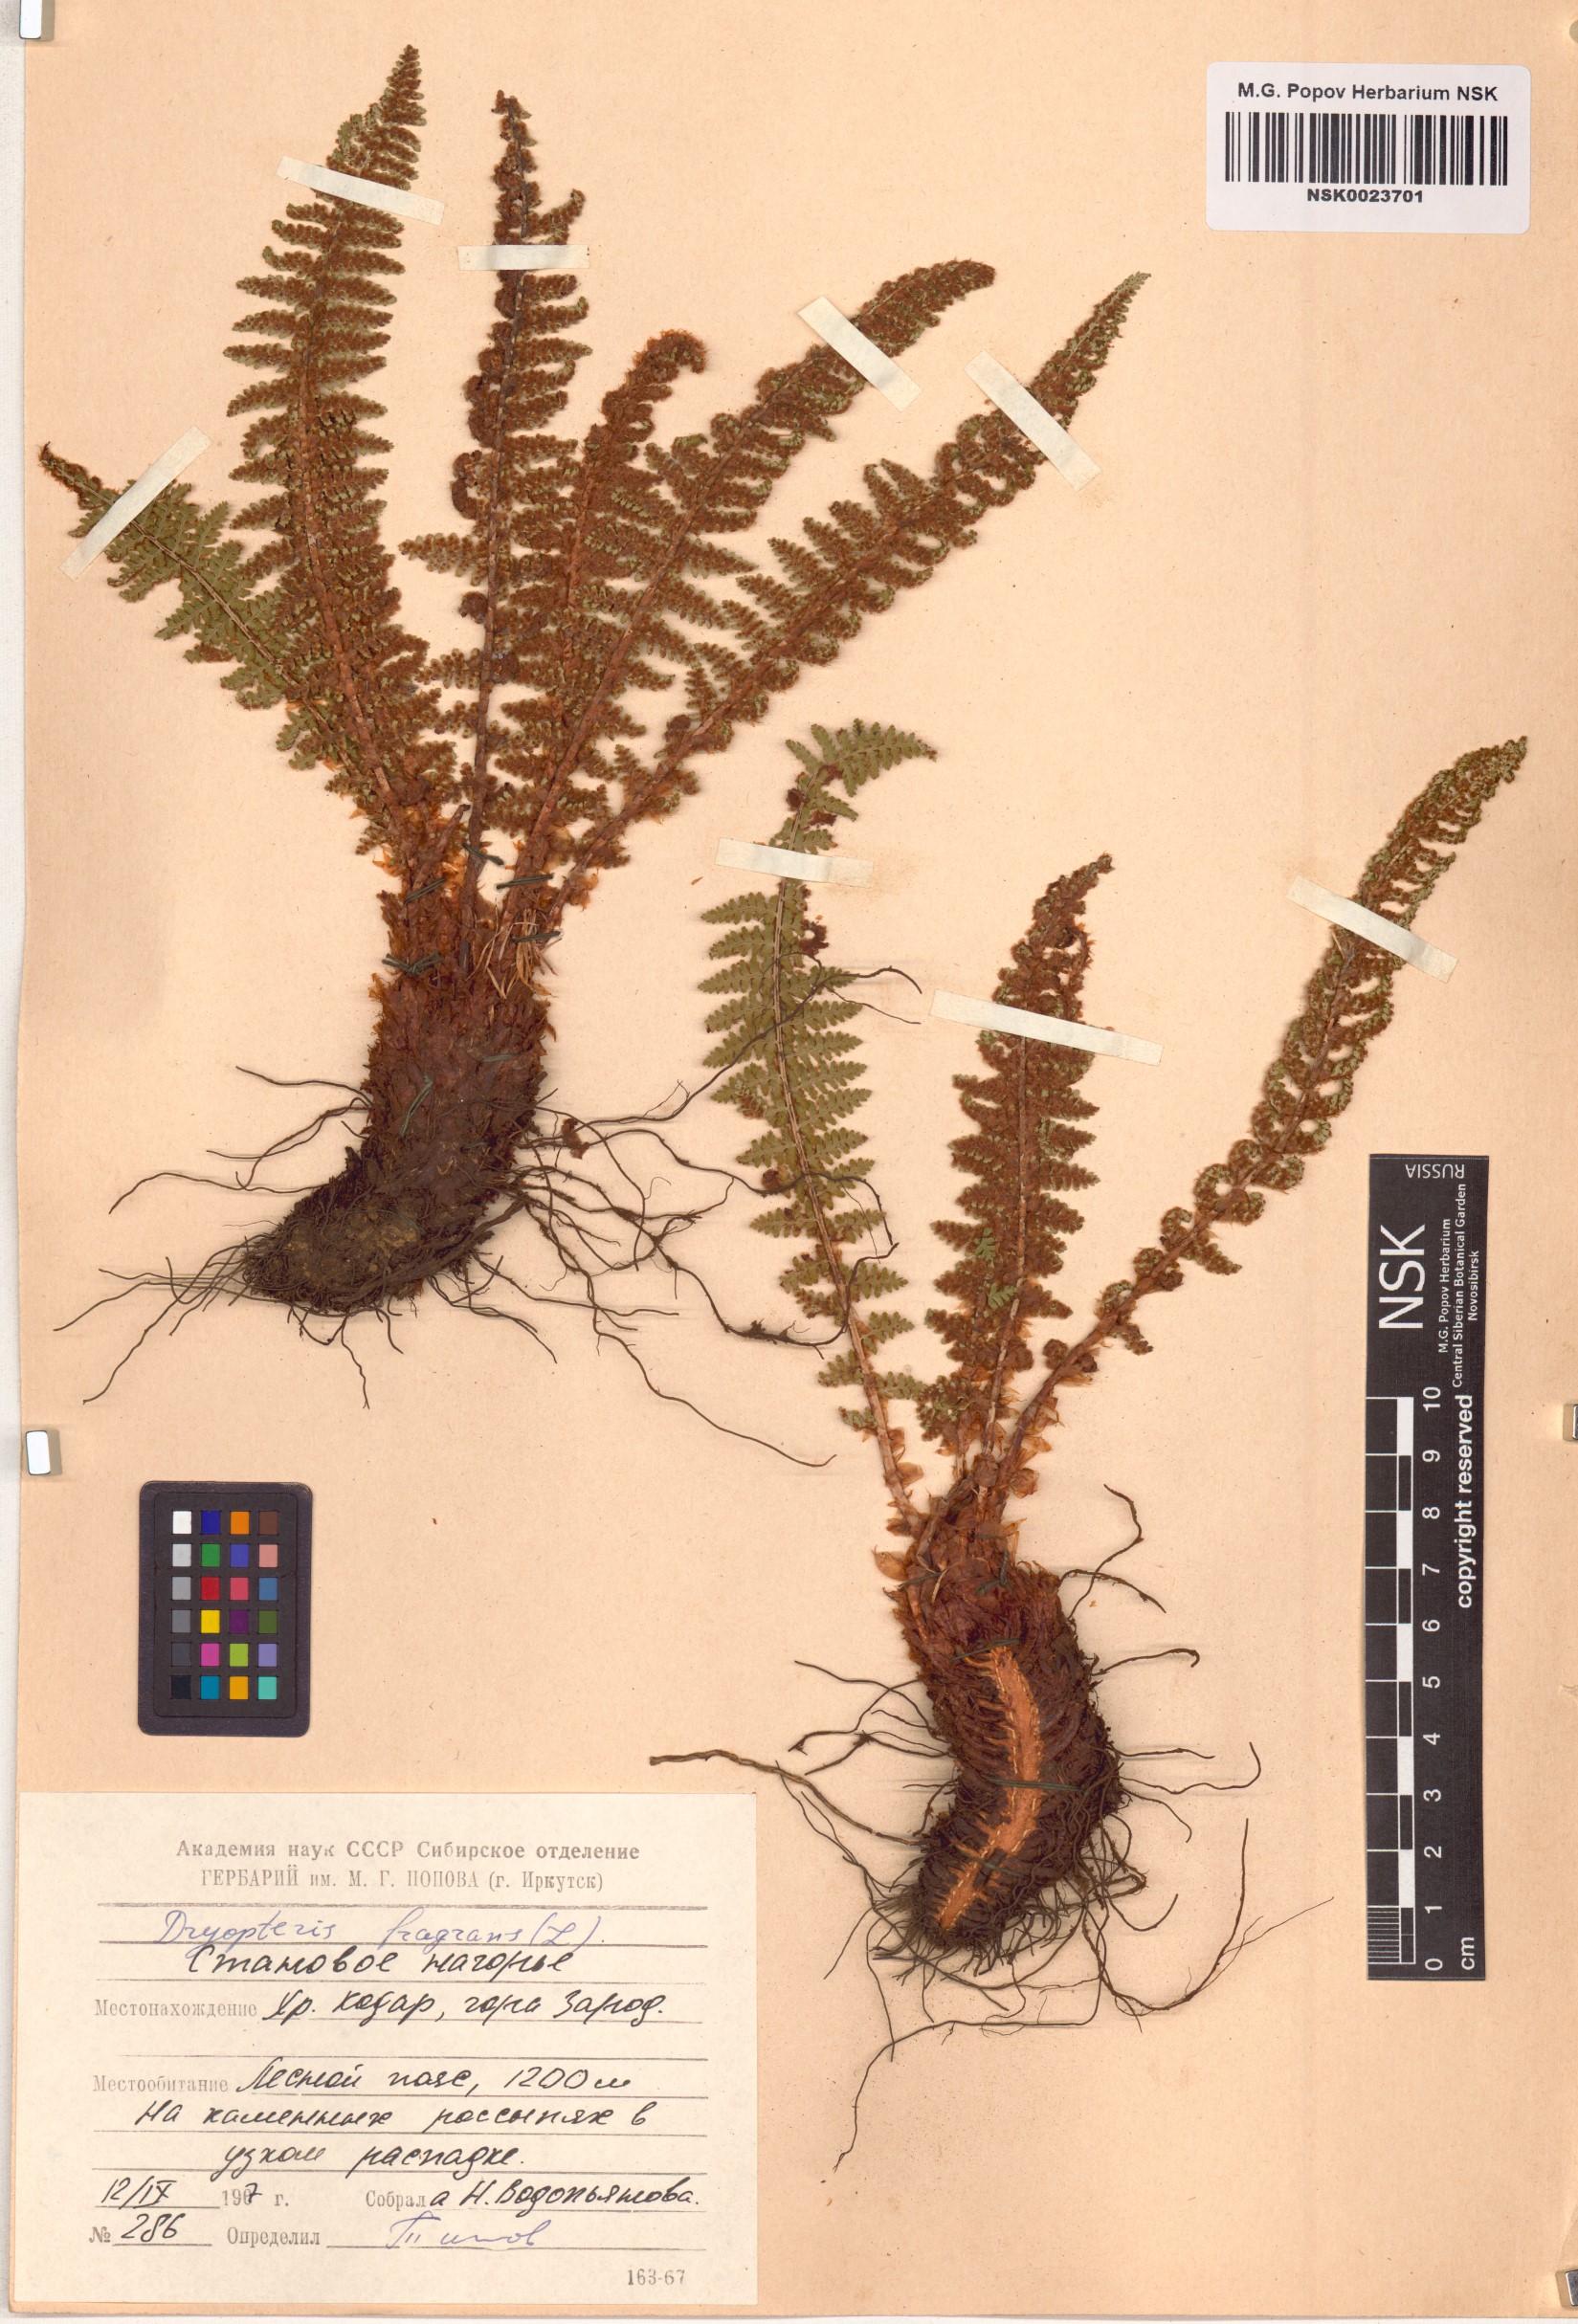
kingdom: Plantae
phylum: Tracheophyta
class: Polypodiopsida
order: Polypodiales
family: Dryopteridaceae
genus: Dryopteris
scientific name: Dryopteris fragrans
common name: Fragrant wood fern
